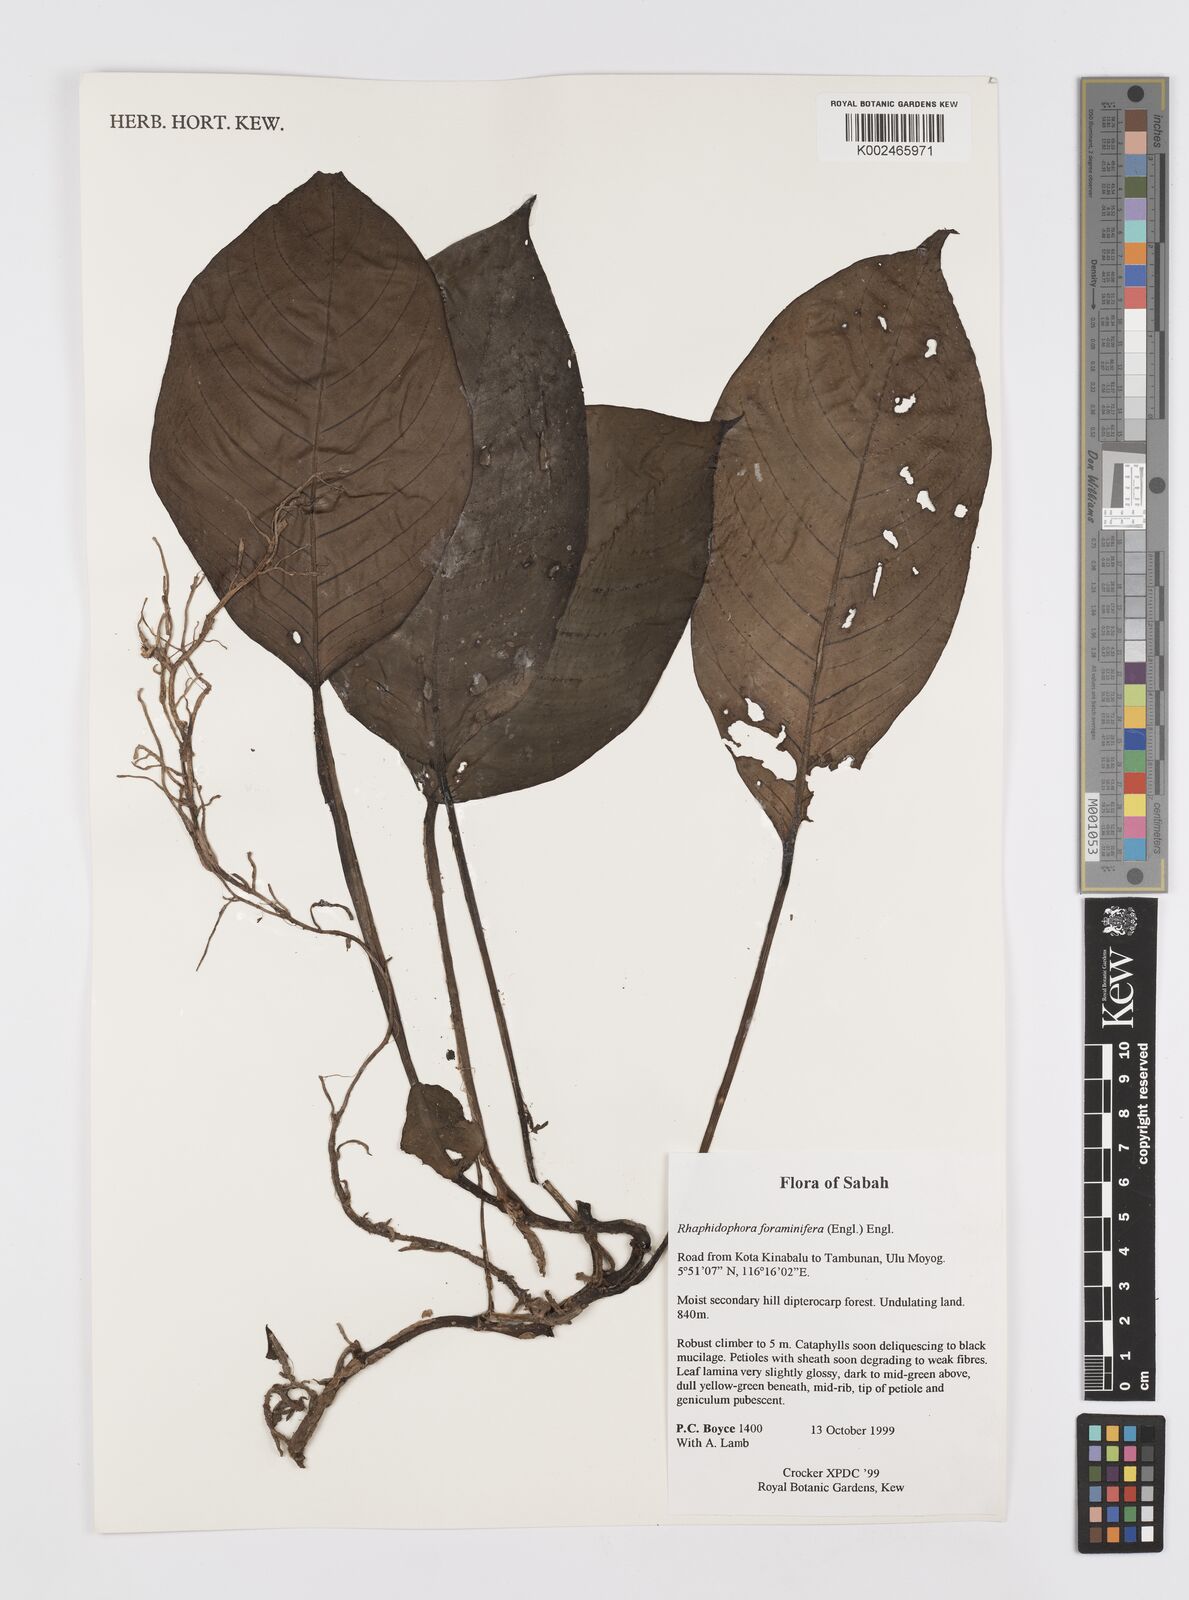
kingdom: Plantae
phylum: Tracheophyta
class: Liliopsida
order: Alismatales
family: Araceae
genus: Rhaphidophora
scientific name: Rhaphidophora foraminifera
